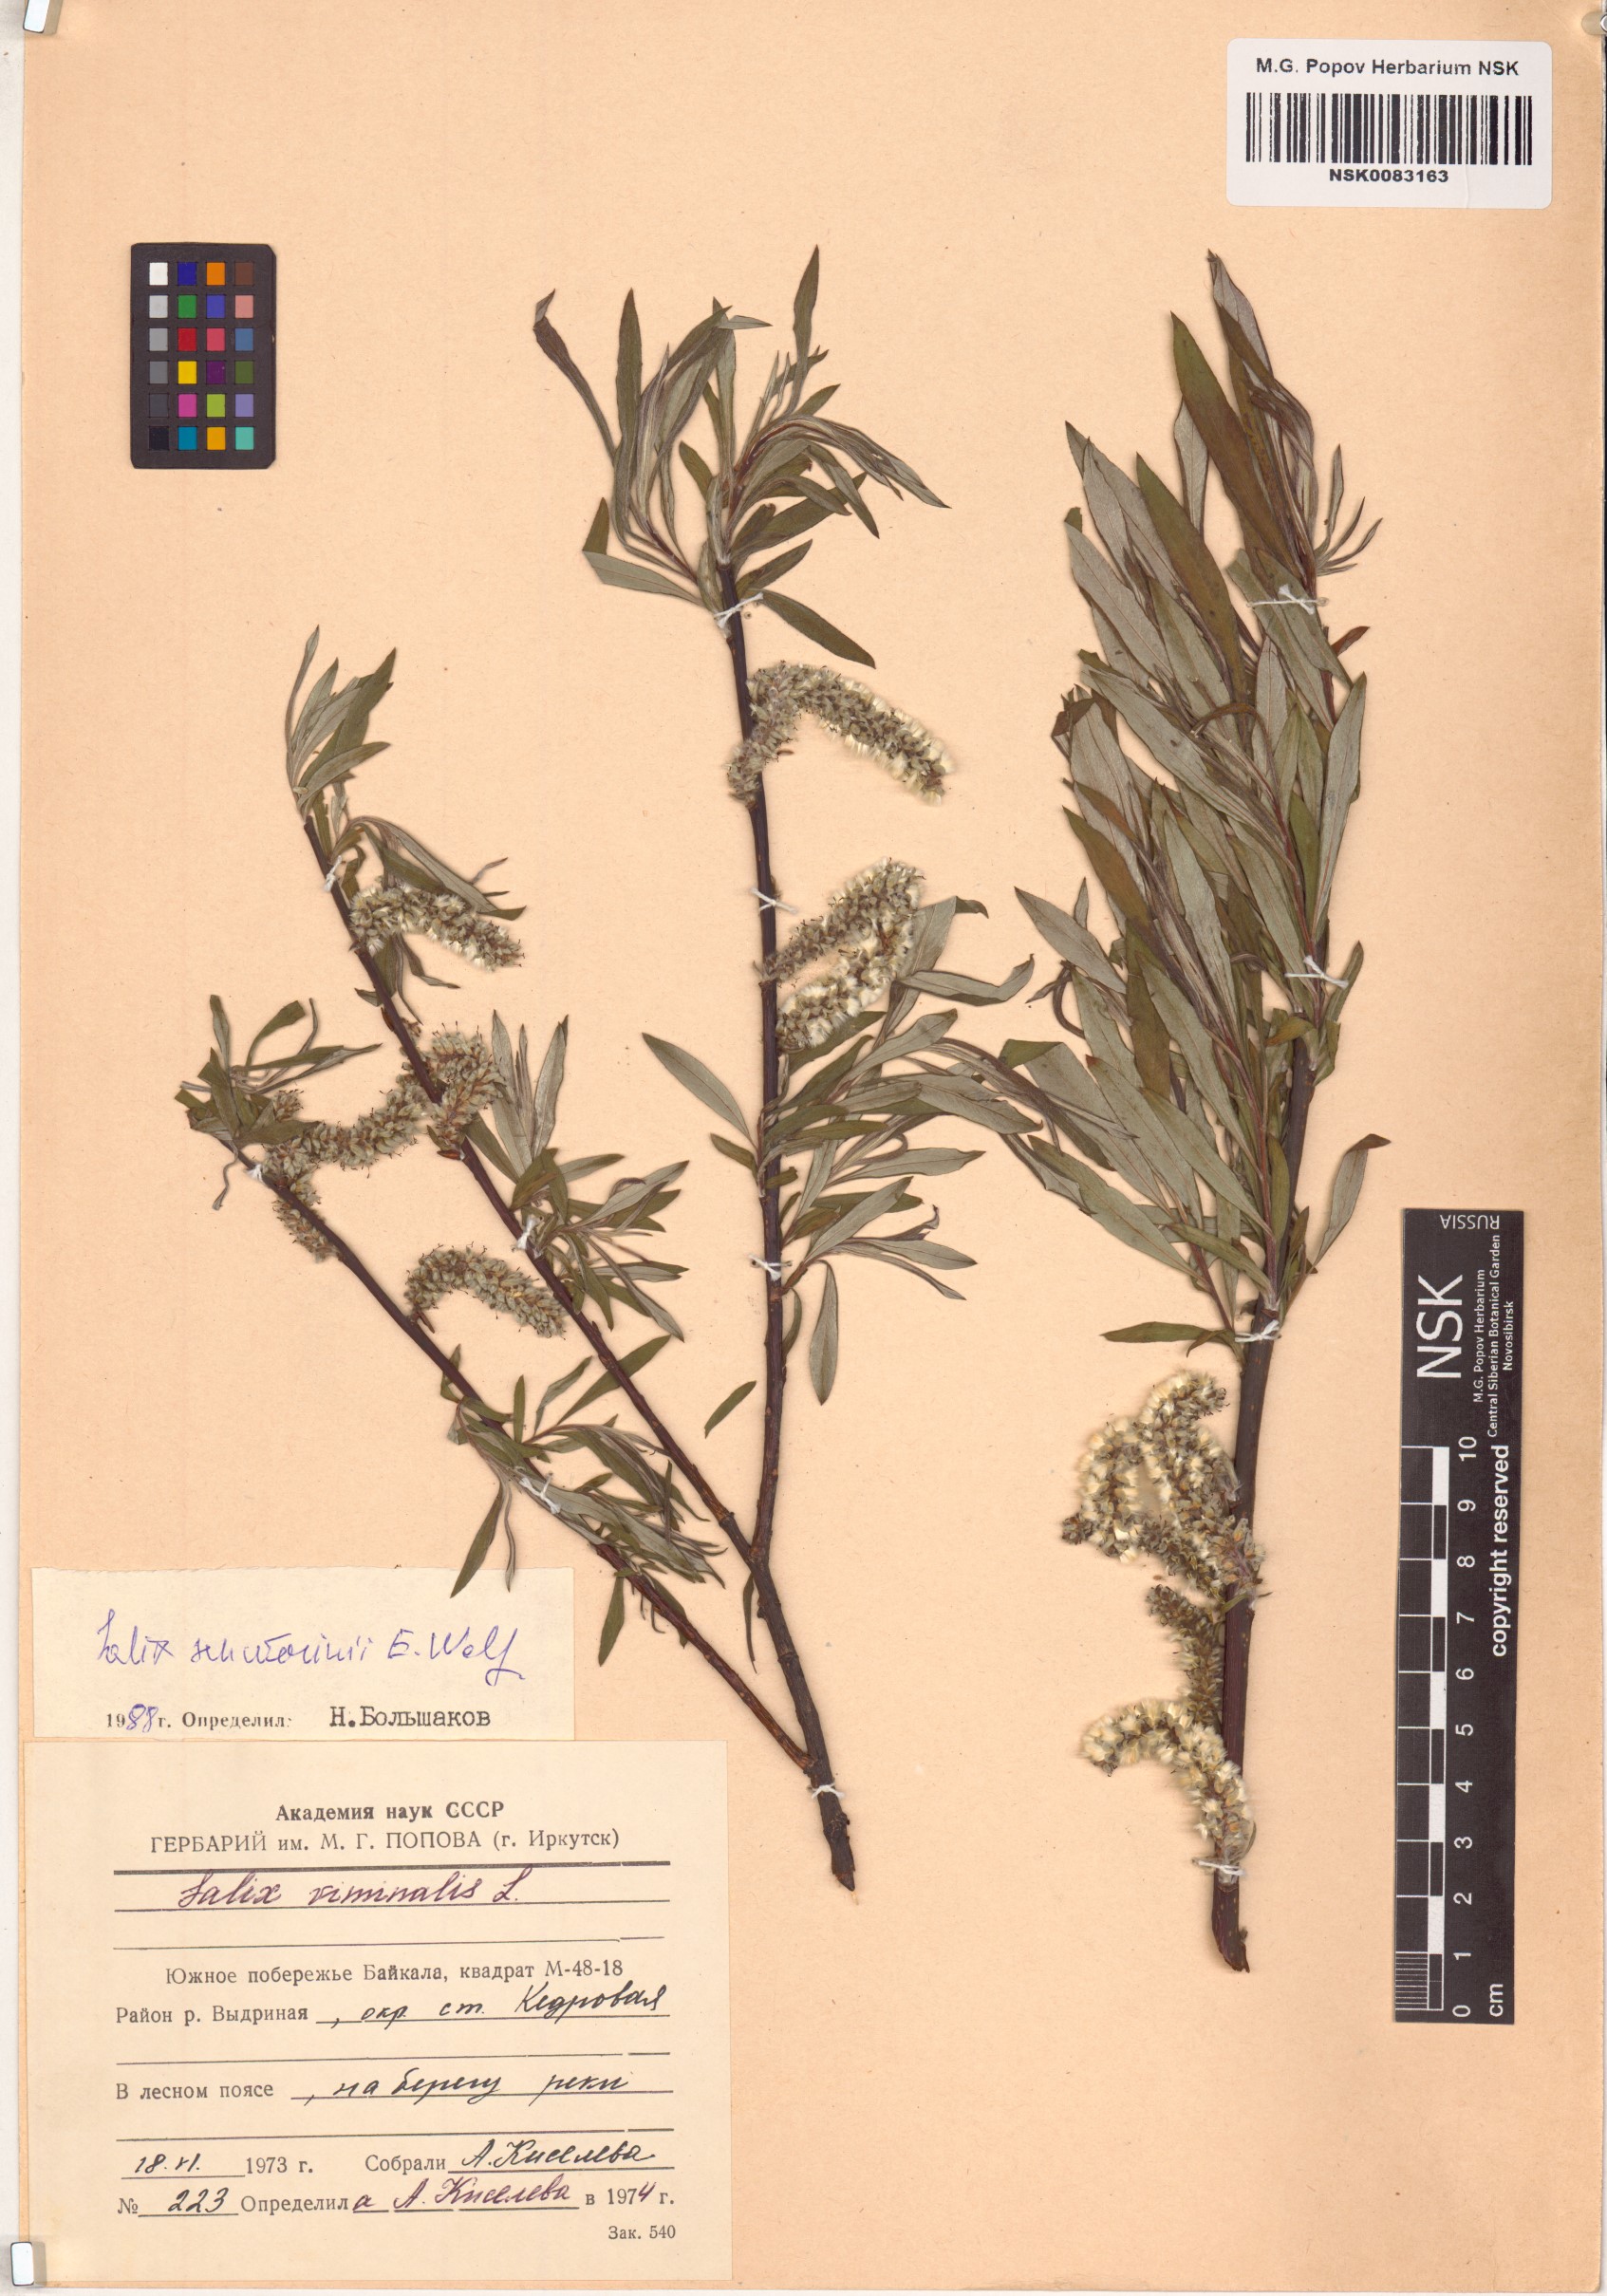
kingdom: Plantae
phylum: Tracheophyta
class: Magnoliopsida
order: Malpighiales
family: Salicaceae
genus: Salix
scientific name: Salix schwerinii
